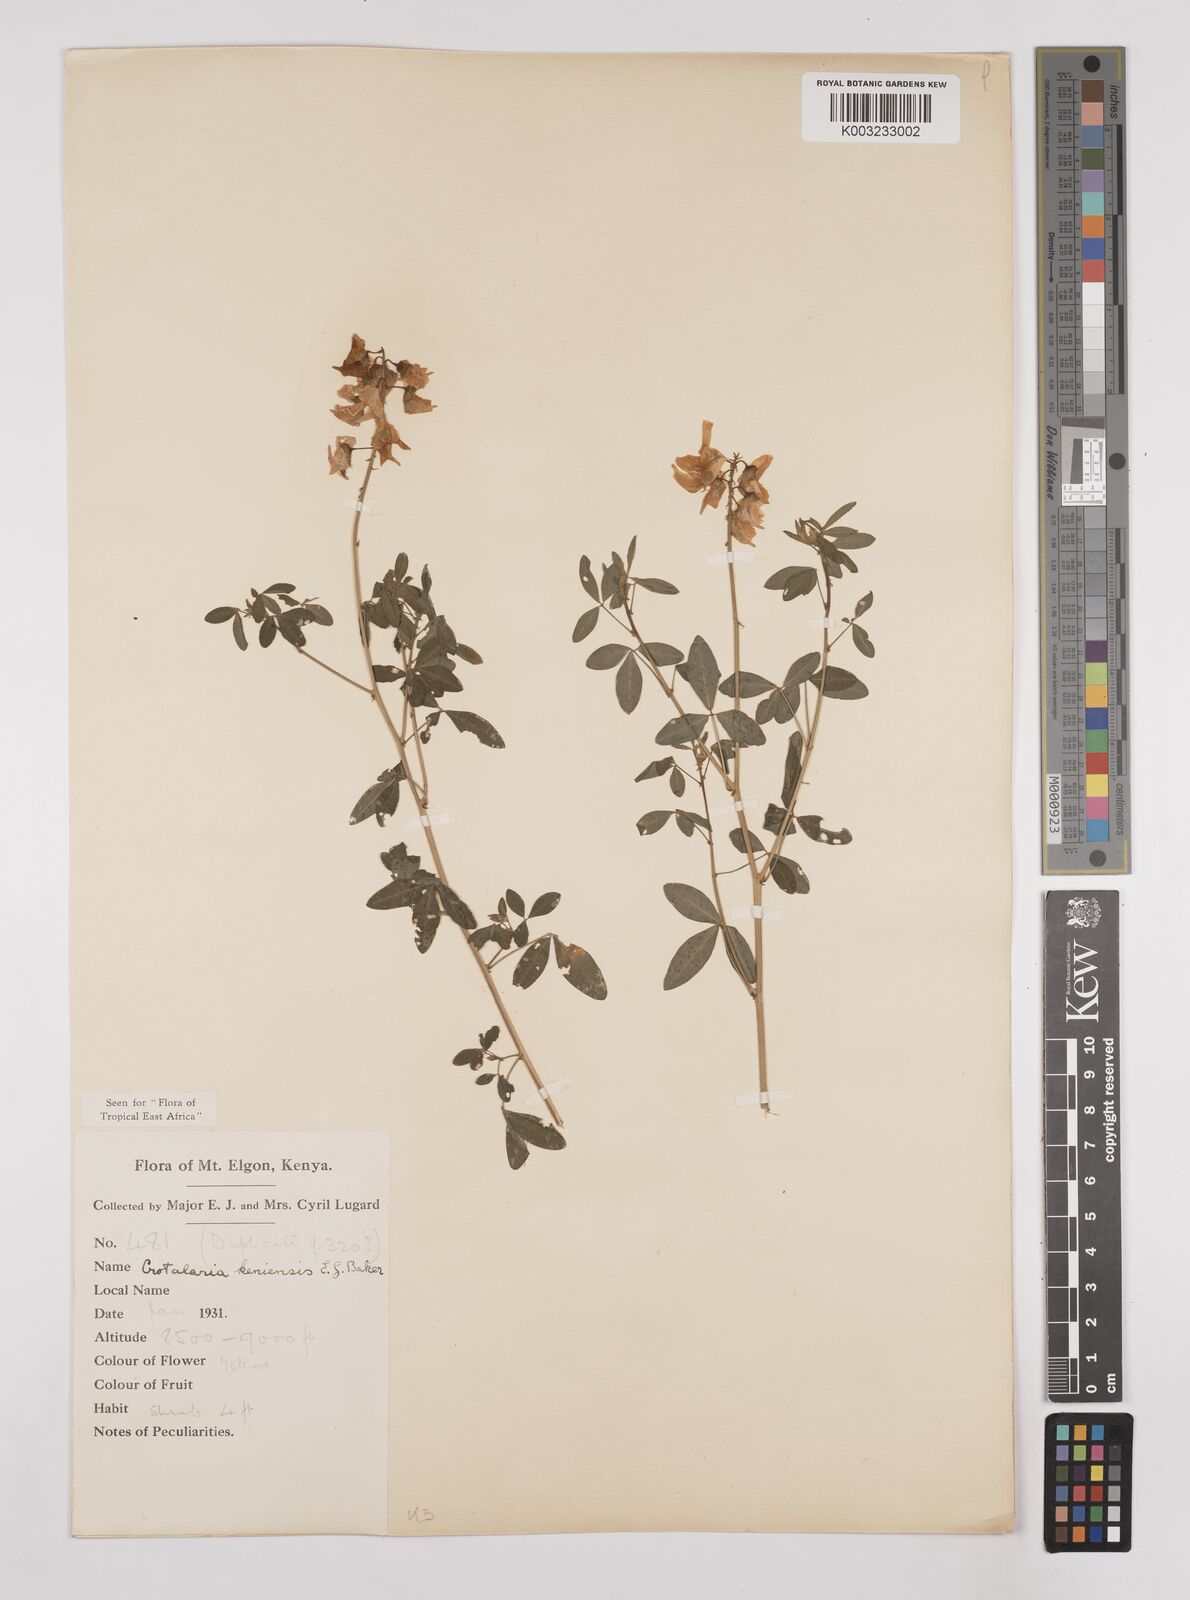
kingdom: Plantae
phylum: Tracheophyta
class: Magnoliopsida
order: Fabales
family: Fabaceae
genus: Crotalaria
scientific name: Crotalaria keniensis
